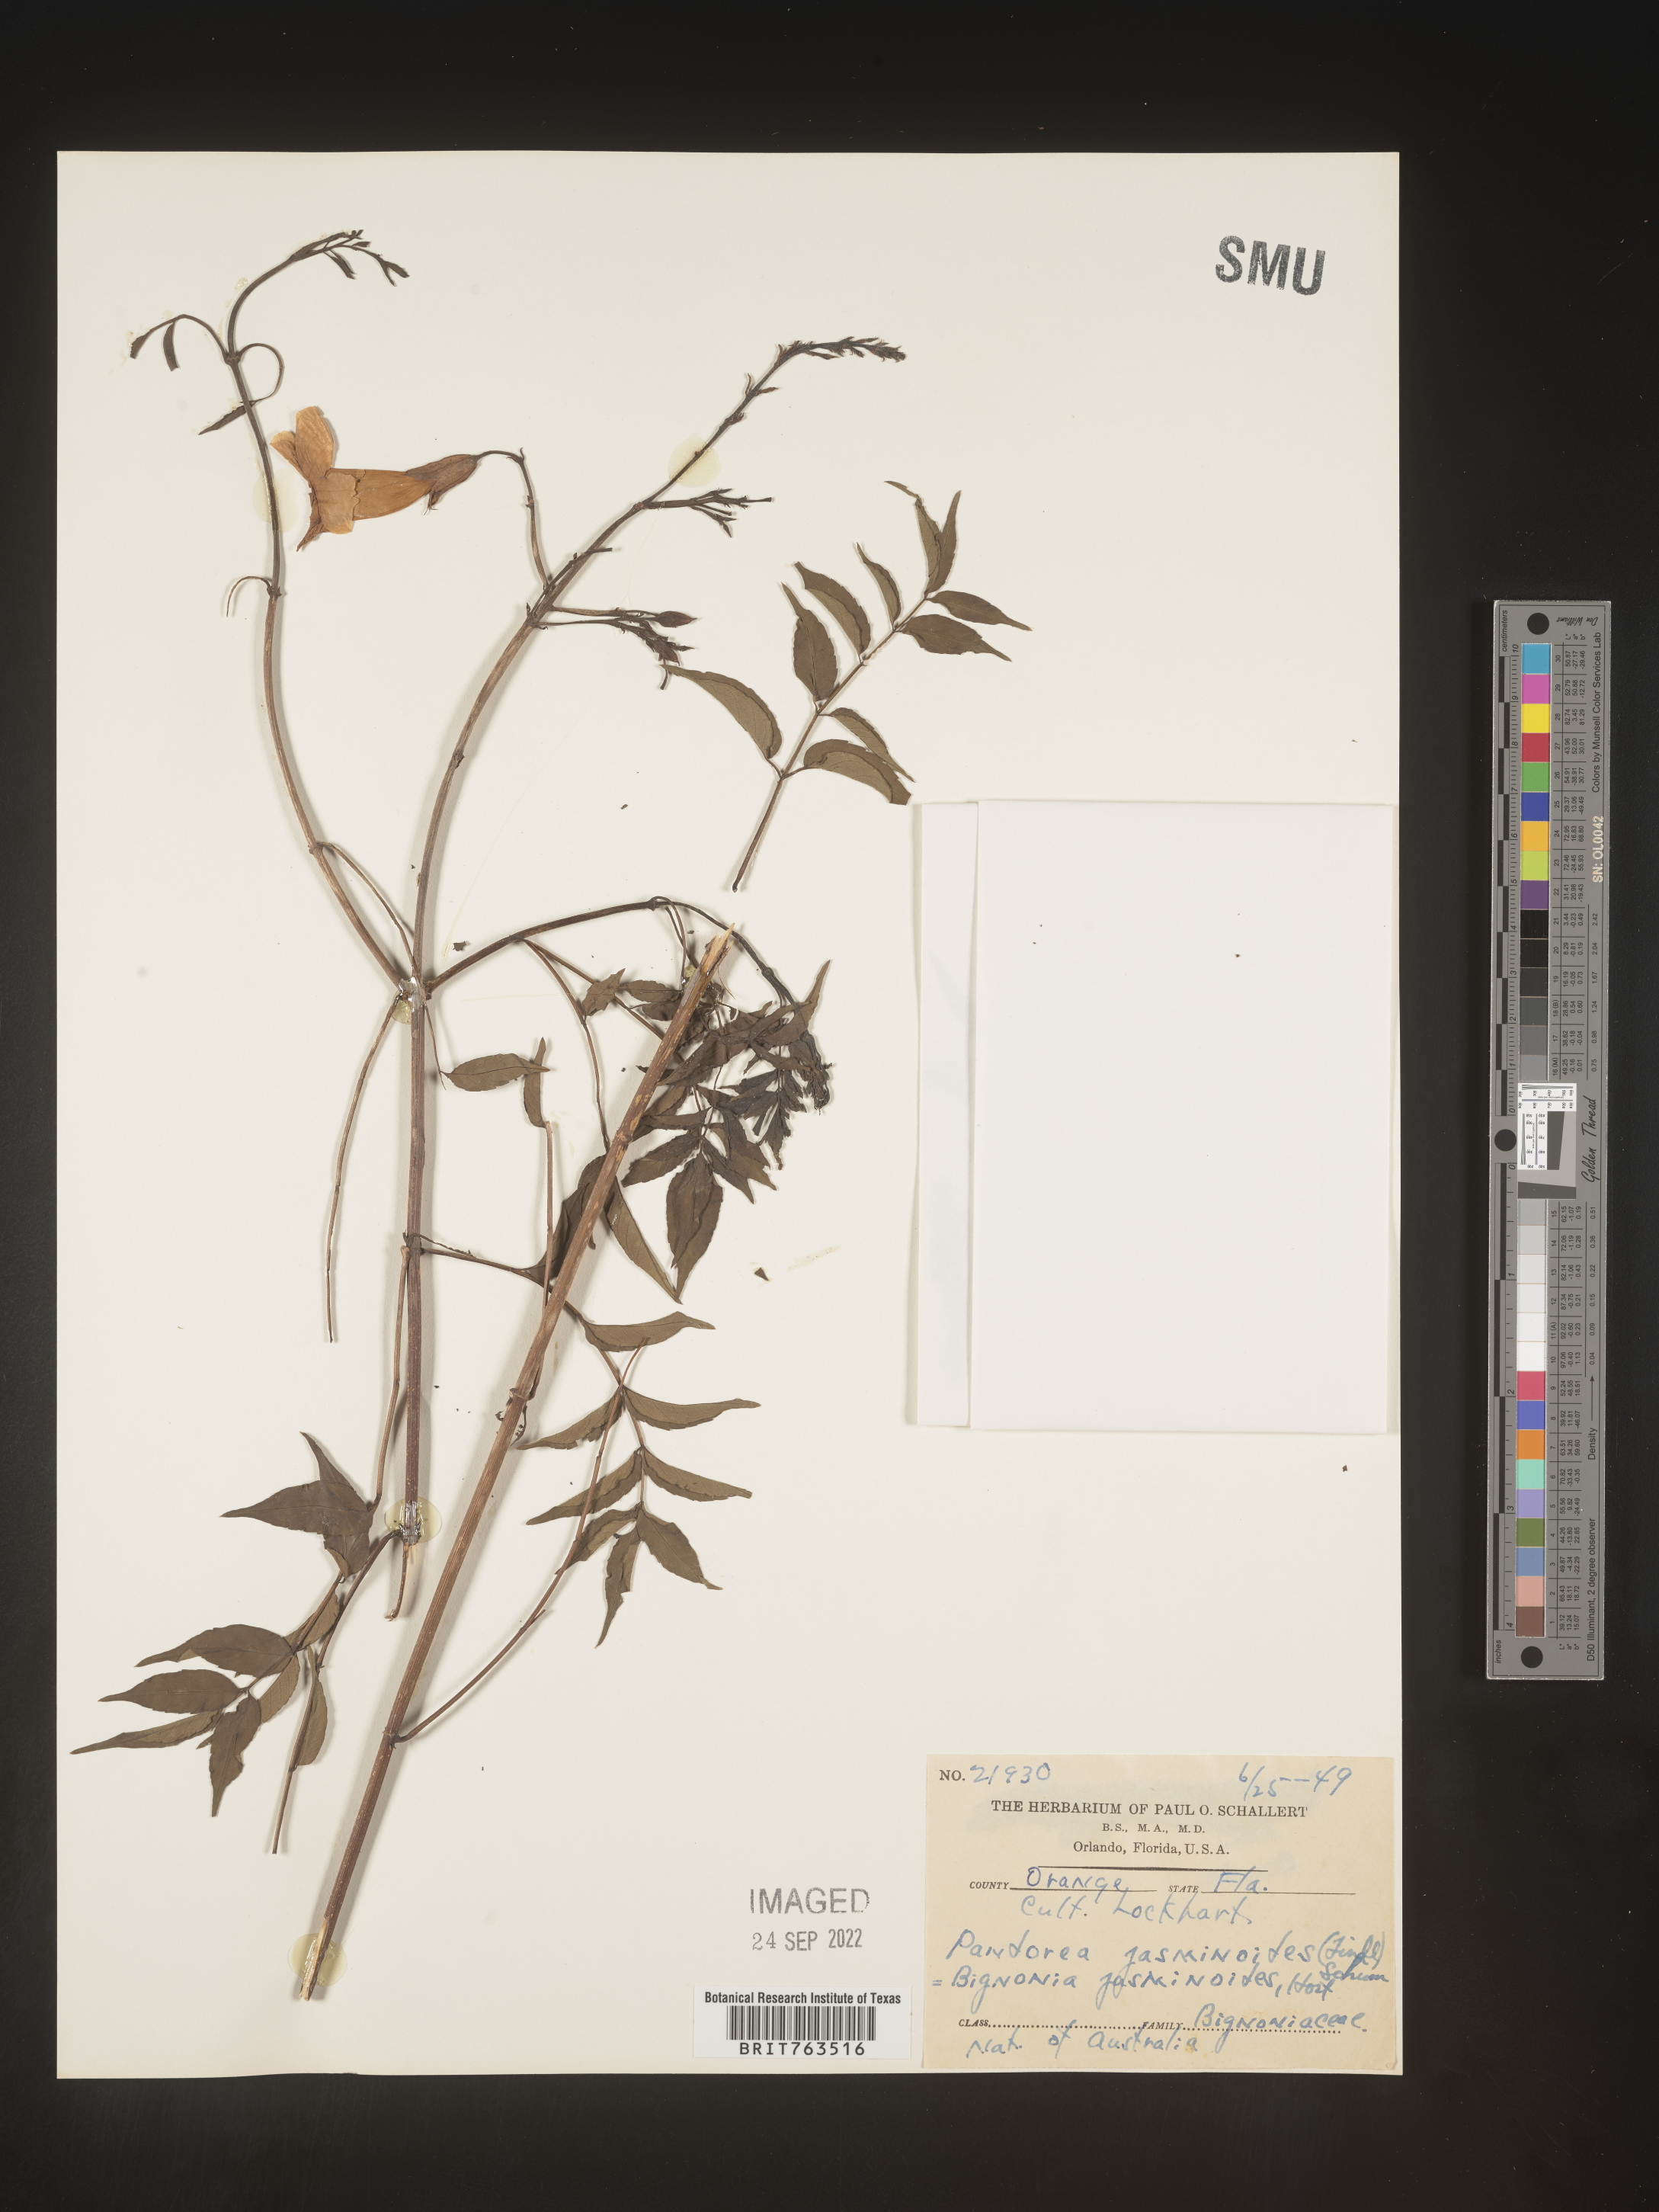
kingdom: Plantae
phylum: Tracheophyta
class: Magnoliopsida
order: Lamiales
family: Bignoniaceae
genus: Pandorea
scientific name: Pandorea
